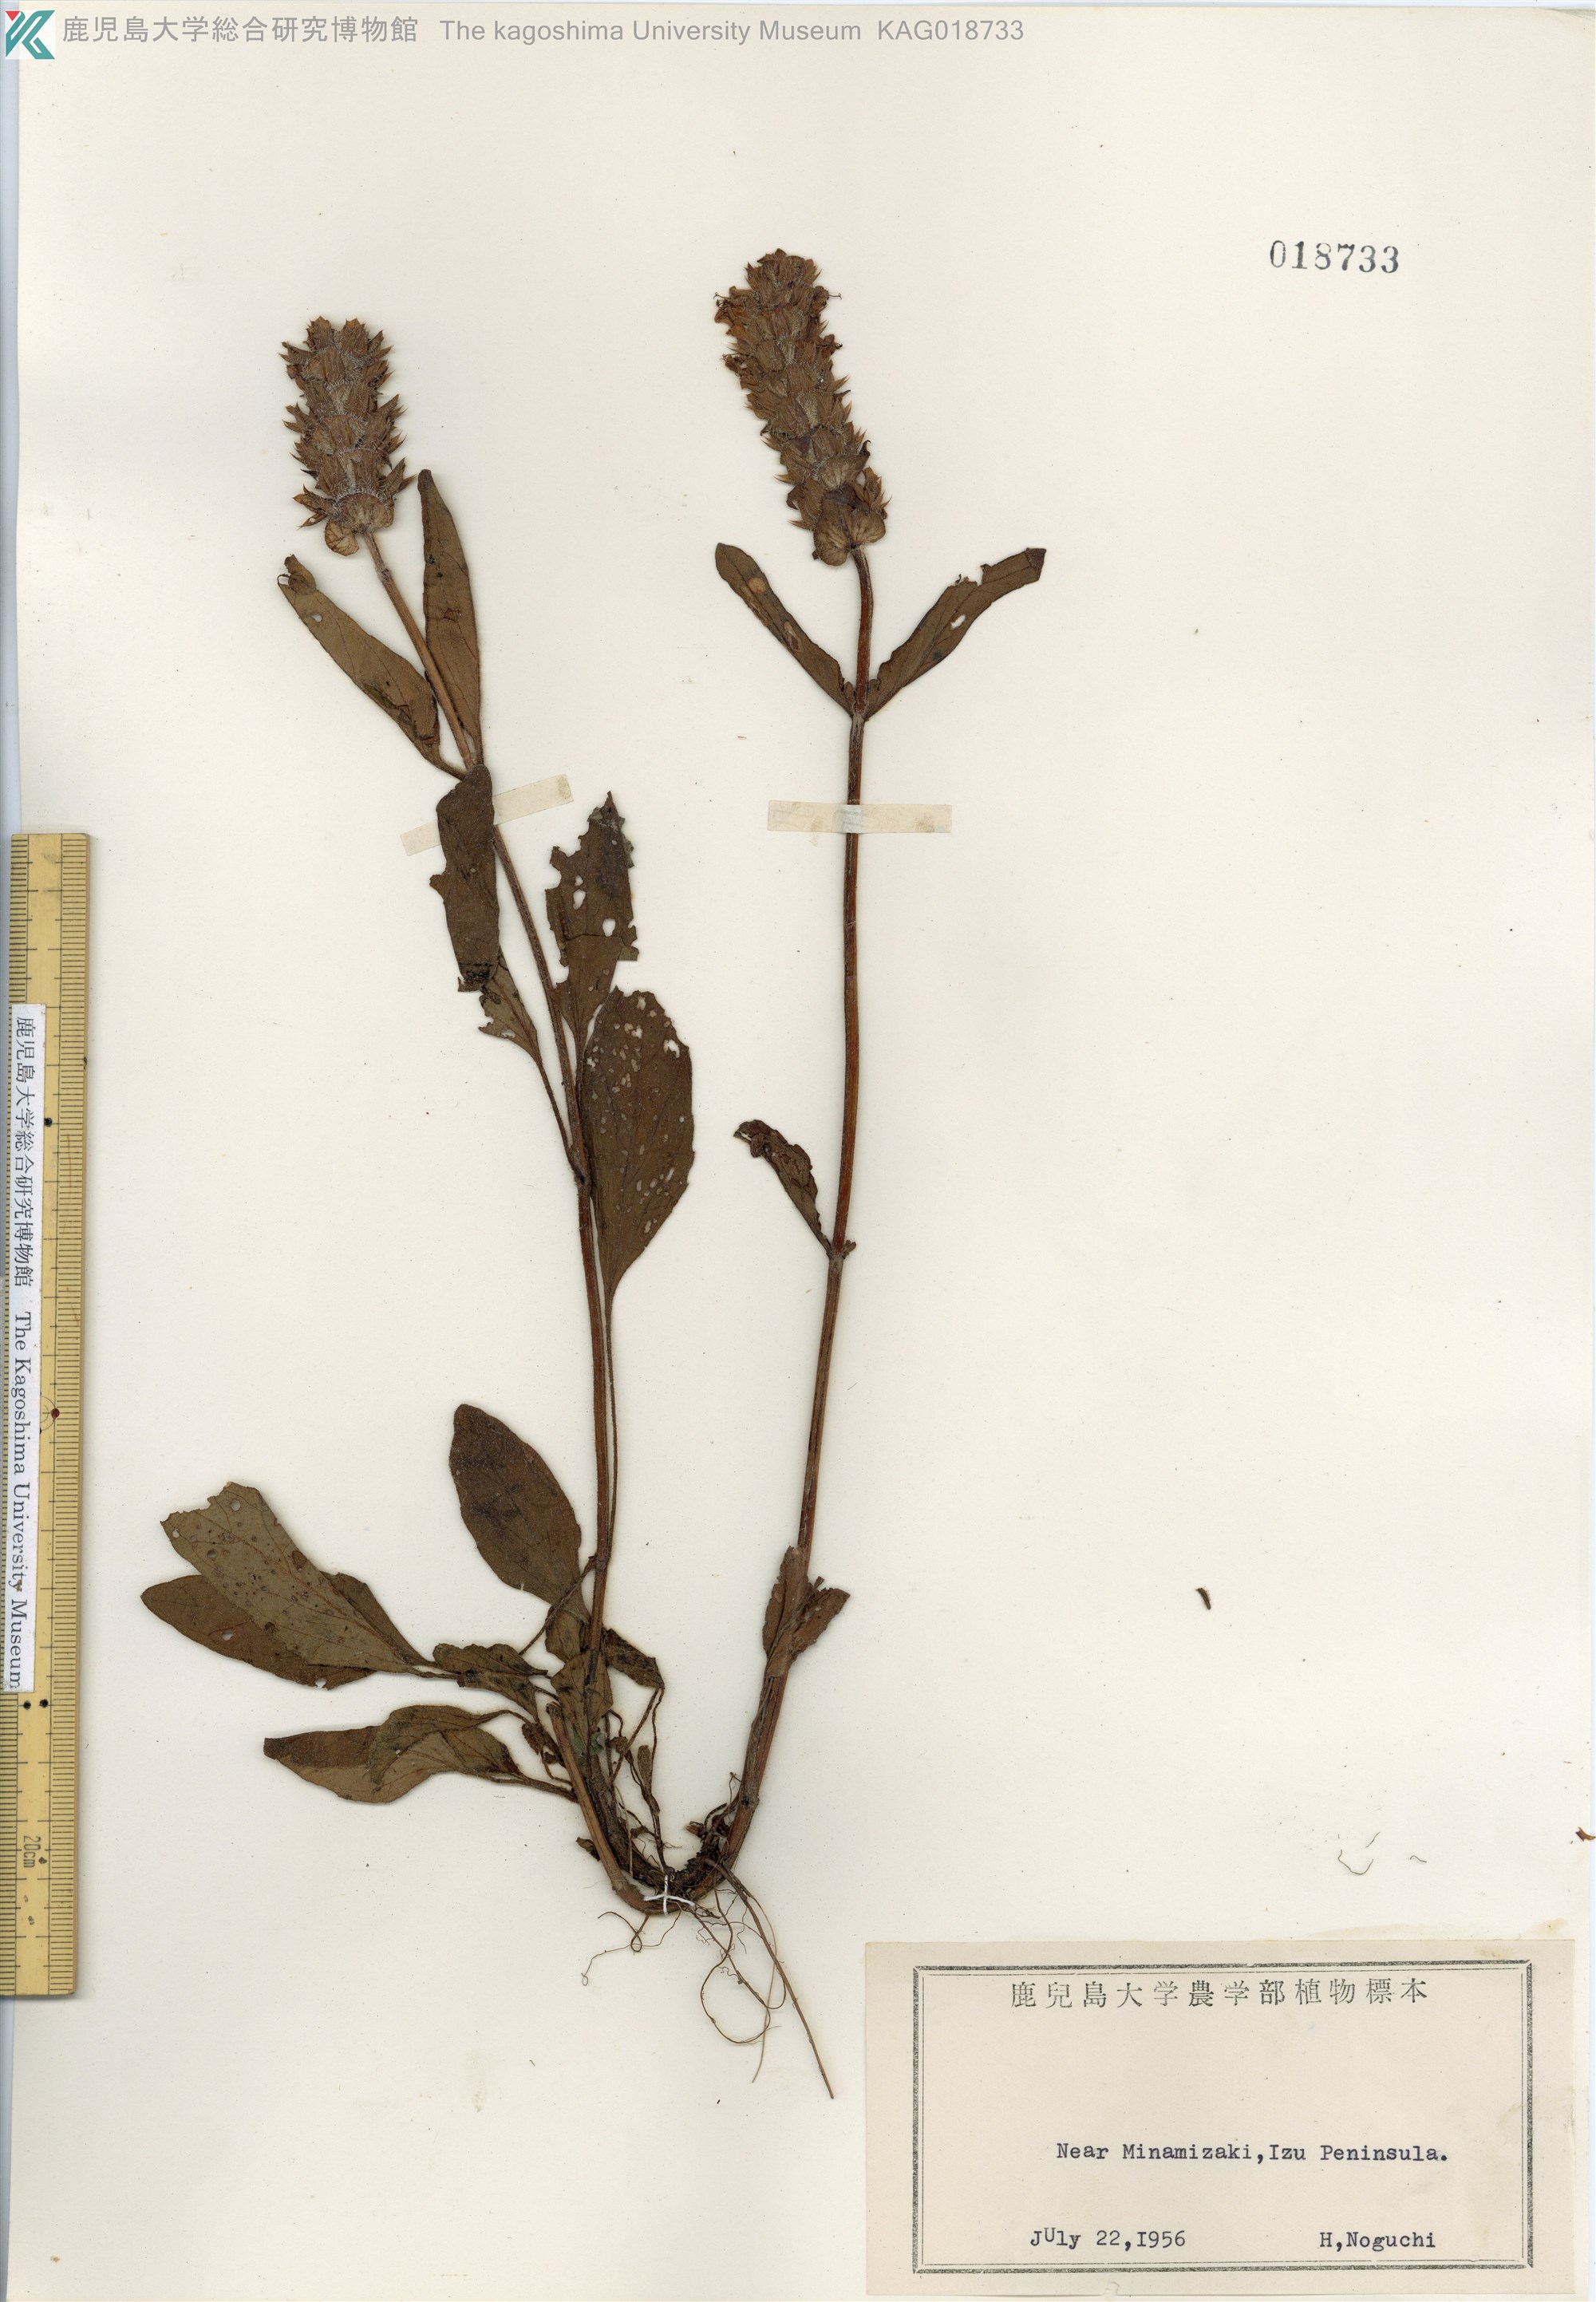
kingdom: Plantae
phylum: Tracheophyta
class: Magnoliopsida
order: Lamiales
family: Lamiaceae
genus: Prunella
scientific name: Prunella vulgaris
